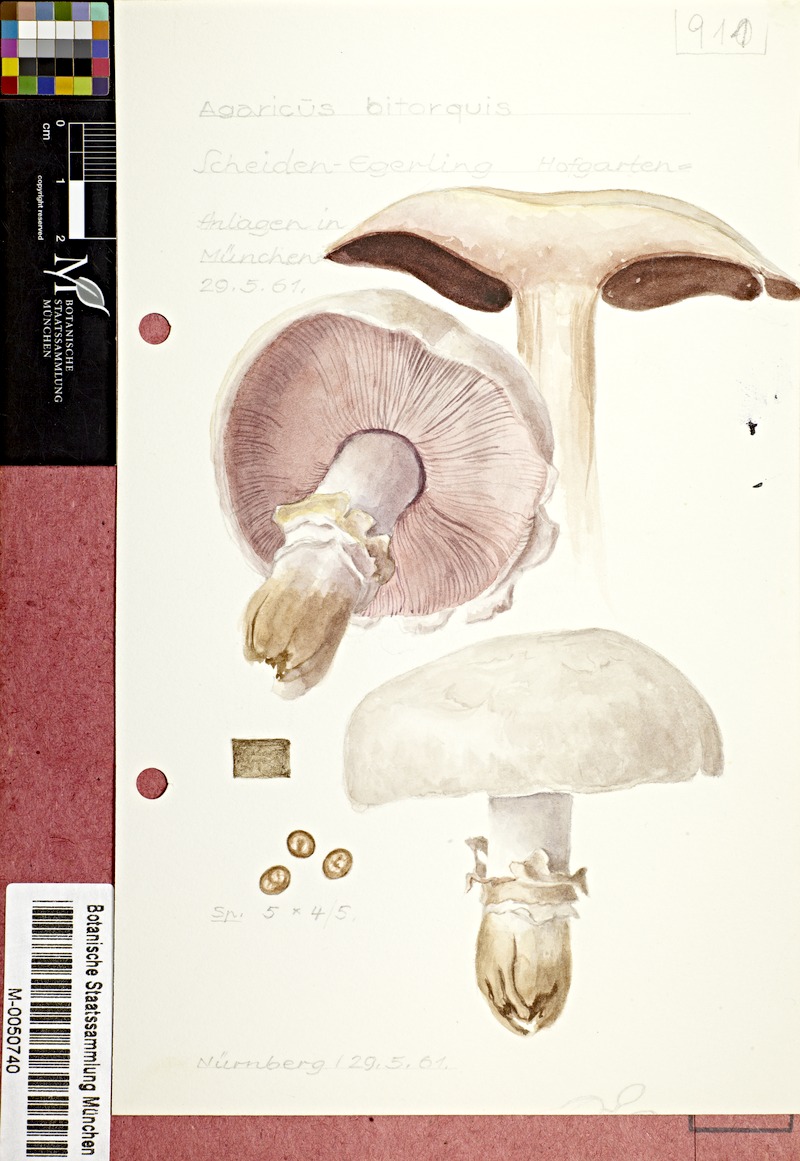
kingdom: Fungi
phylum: Basidiomycota
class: Agaricomycetes
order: Agaricales
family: Agaricaceae
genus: Agaricus
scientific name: Agaricus bitorquis
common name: Pavement mushroom
